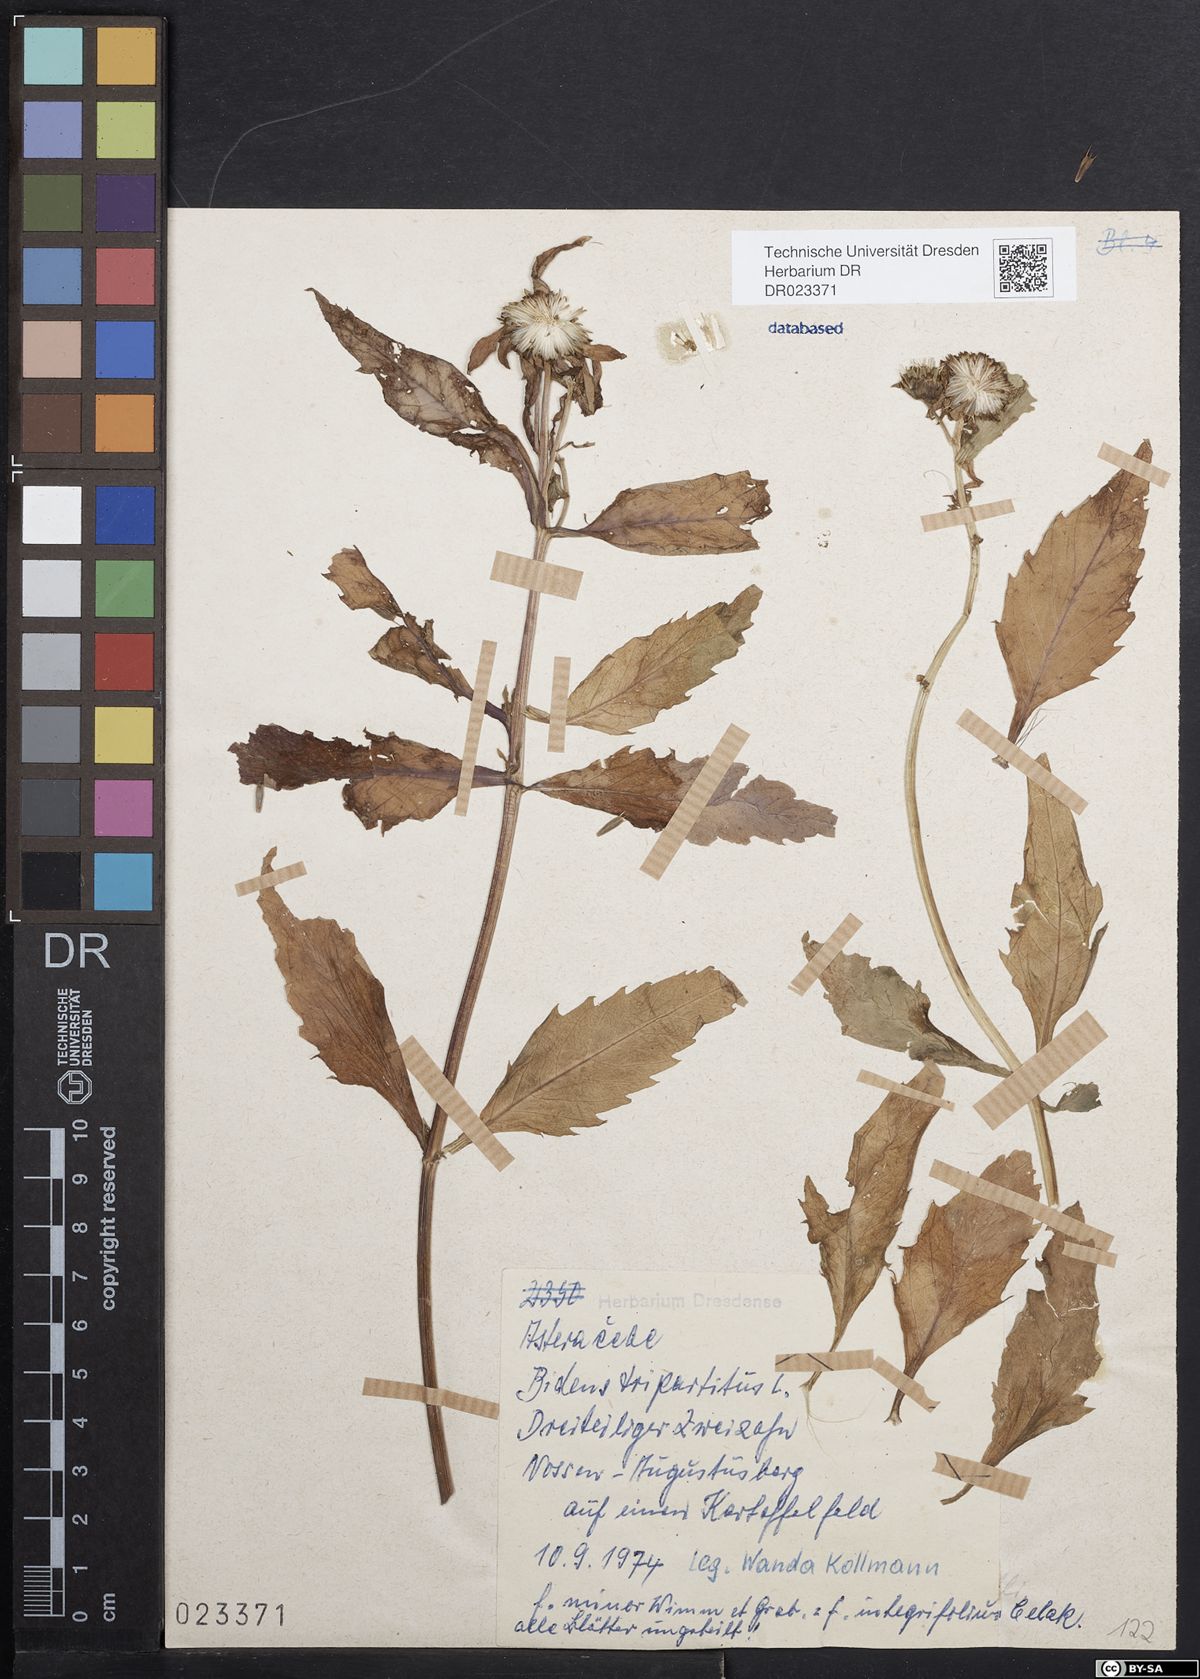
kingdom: Plantae
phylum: Tracheophyta
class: Magnoliopsida
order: Asterales
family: Asteraceae
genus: Bidens
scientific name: Bidens tripartita
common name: Trifid bur-marigold
